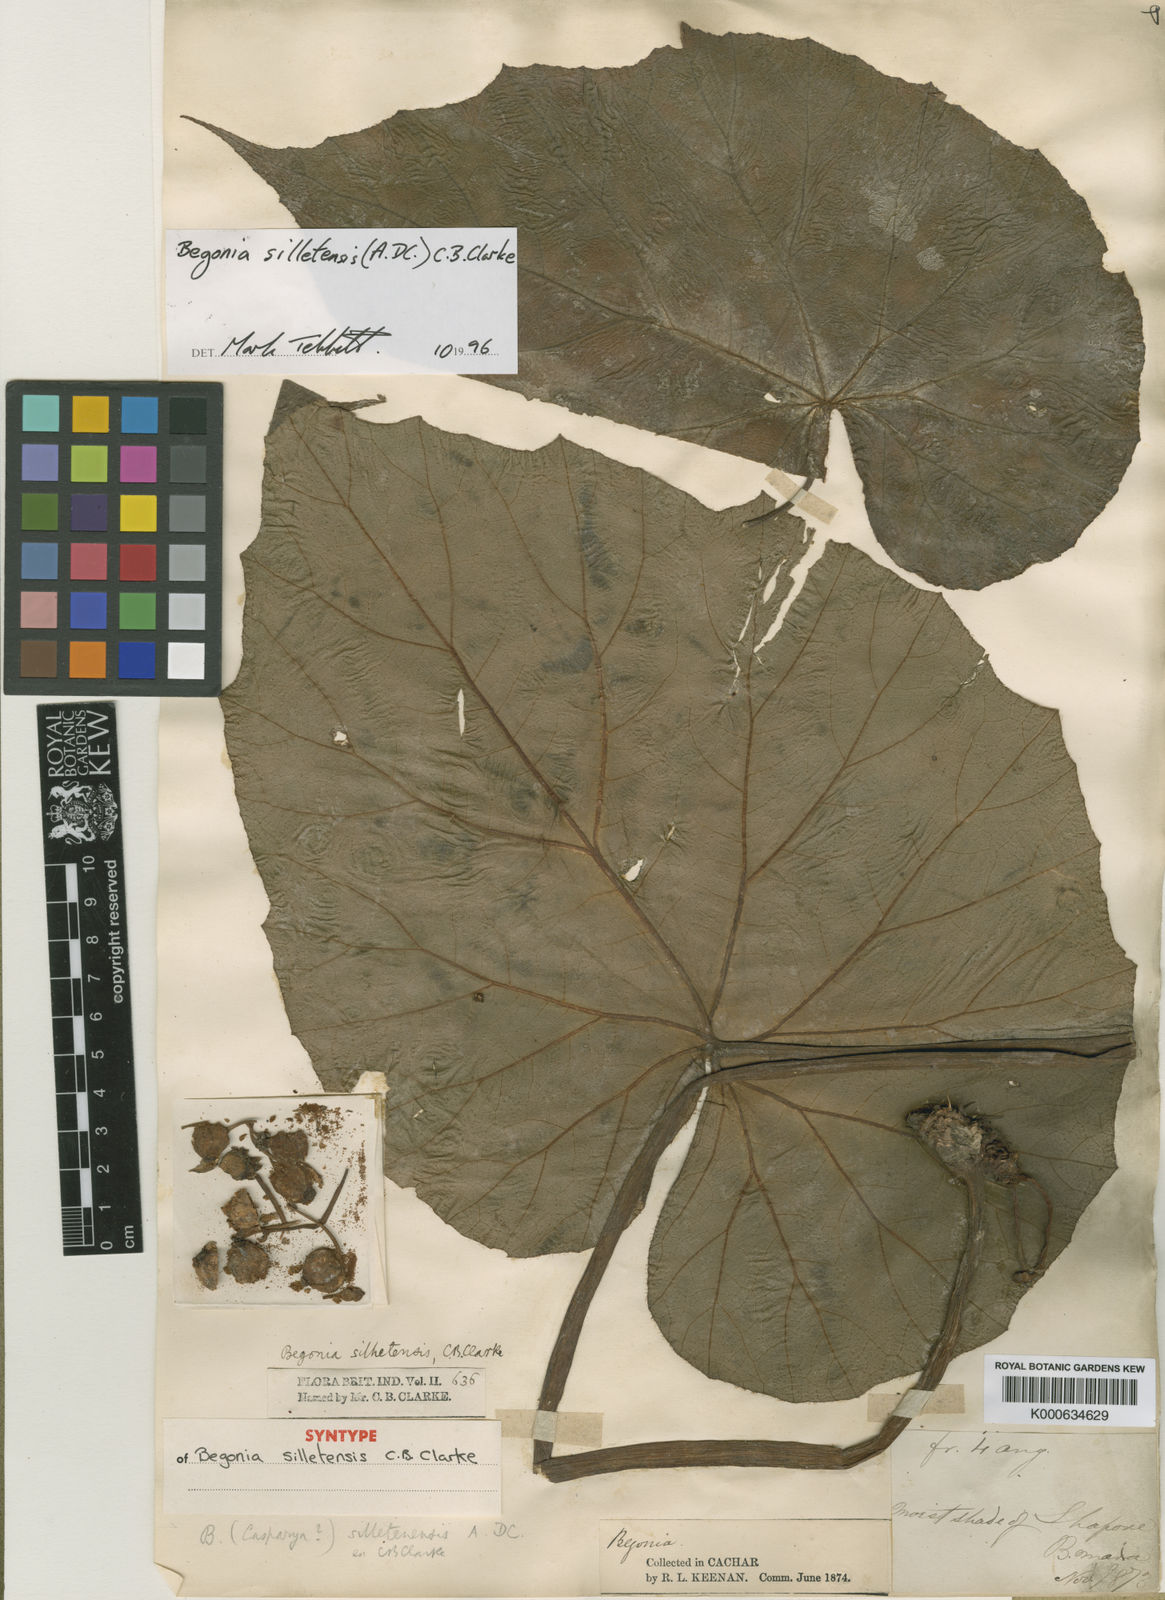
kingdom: Plantae
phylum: Tracheophyta
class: Magnoliopsida
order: Cucurbitales
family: Begoniaceae
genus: Begonia
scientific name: Begonia silletensis
